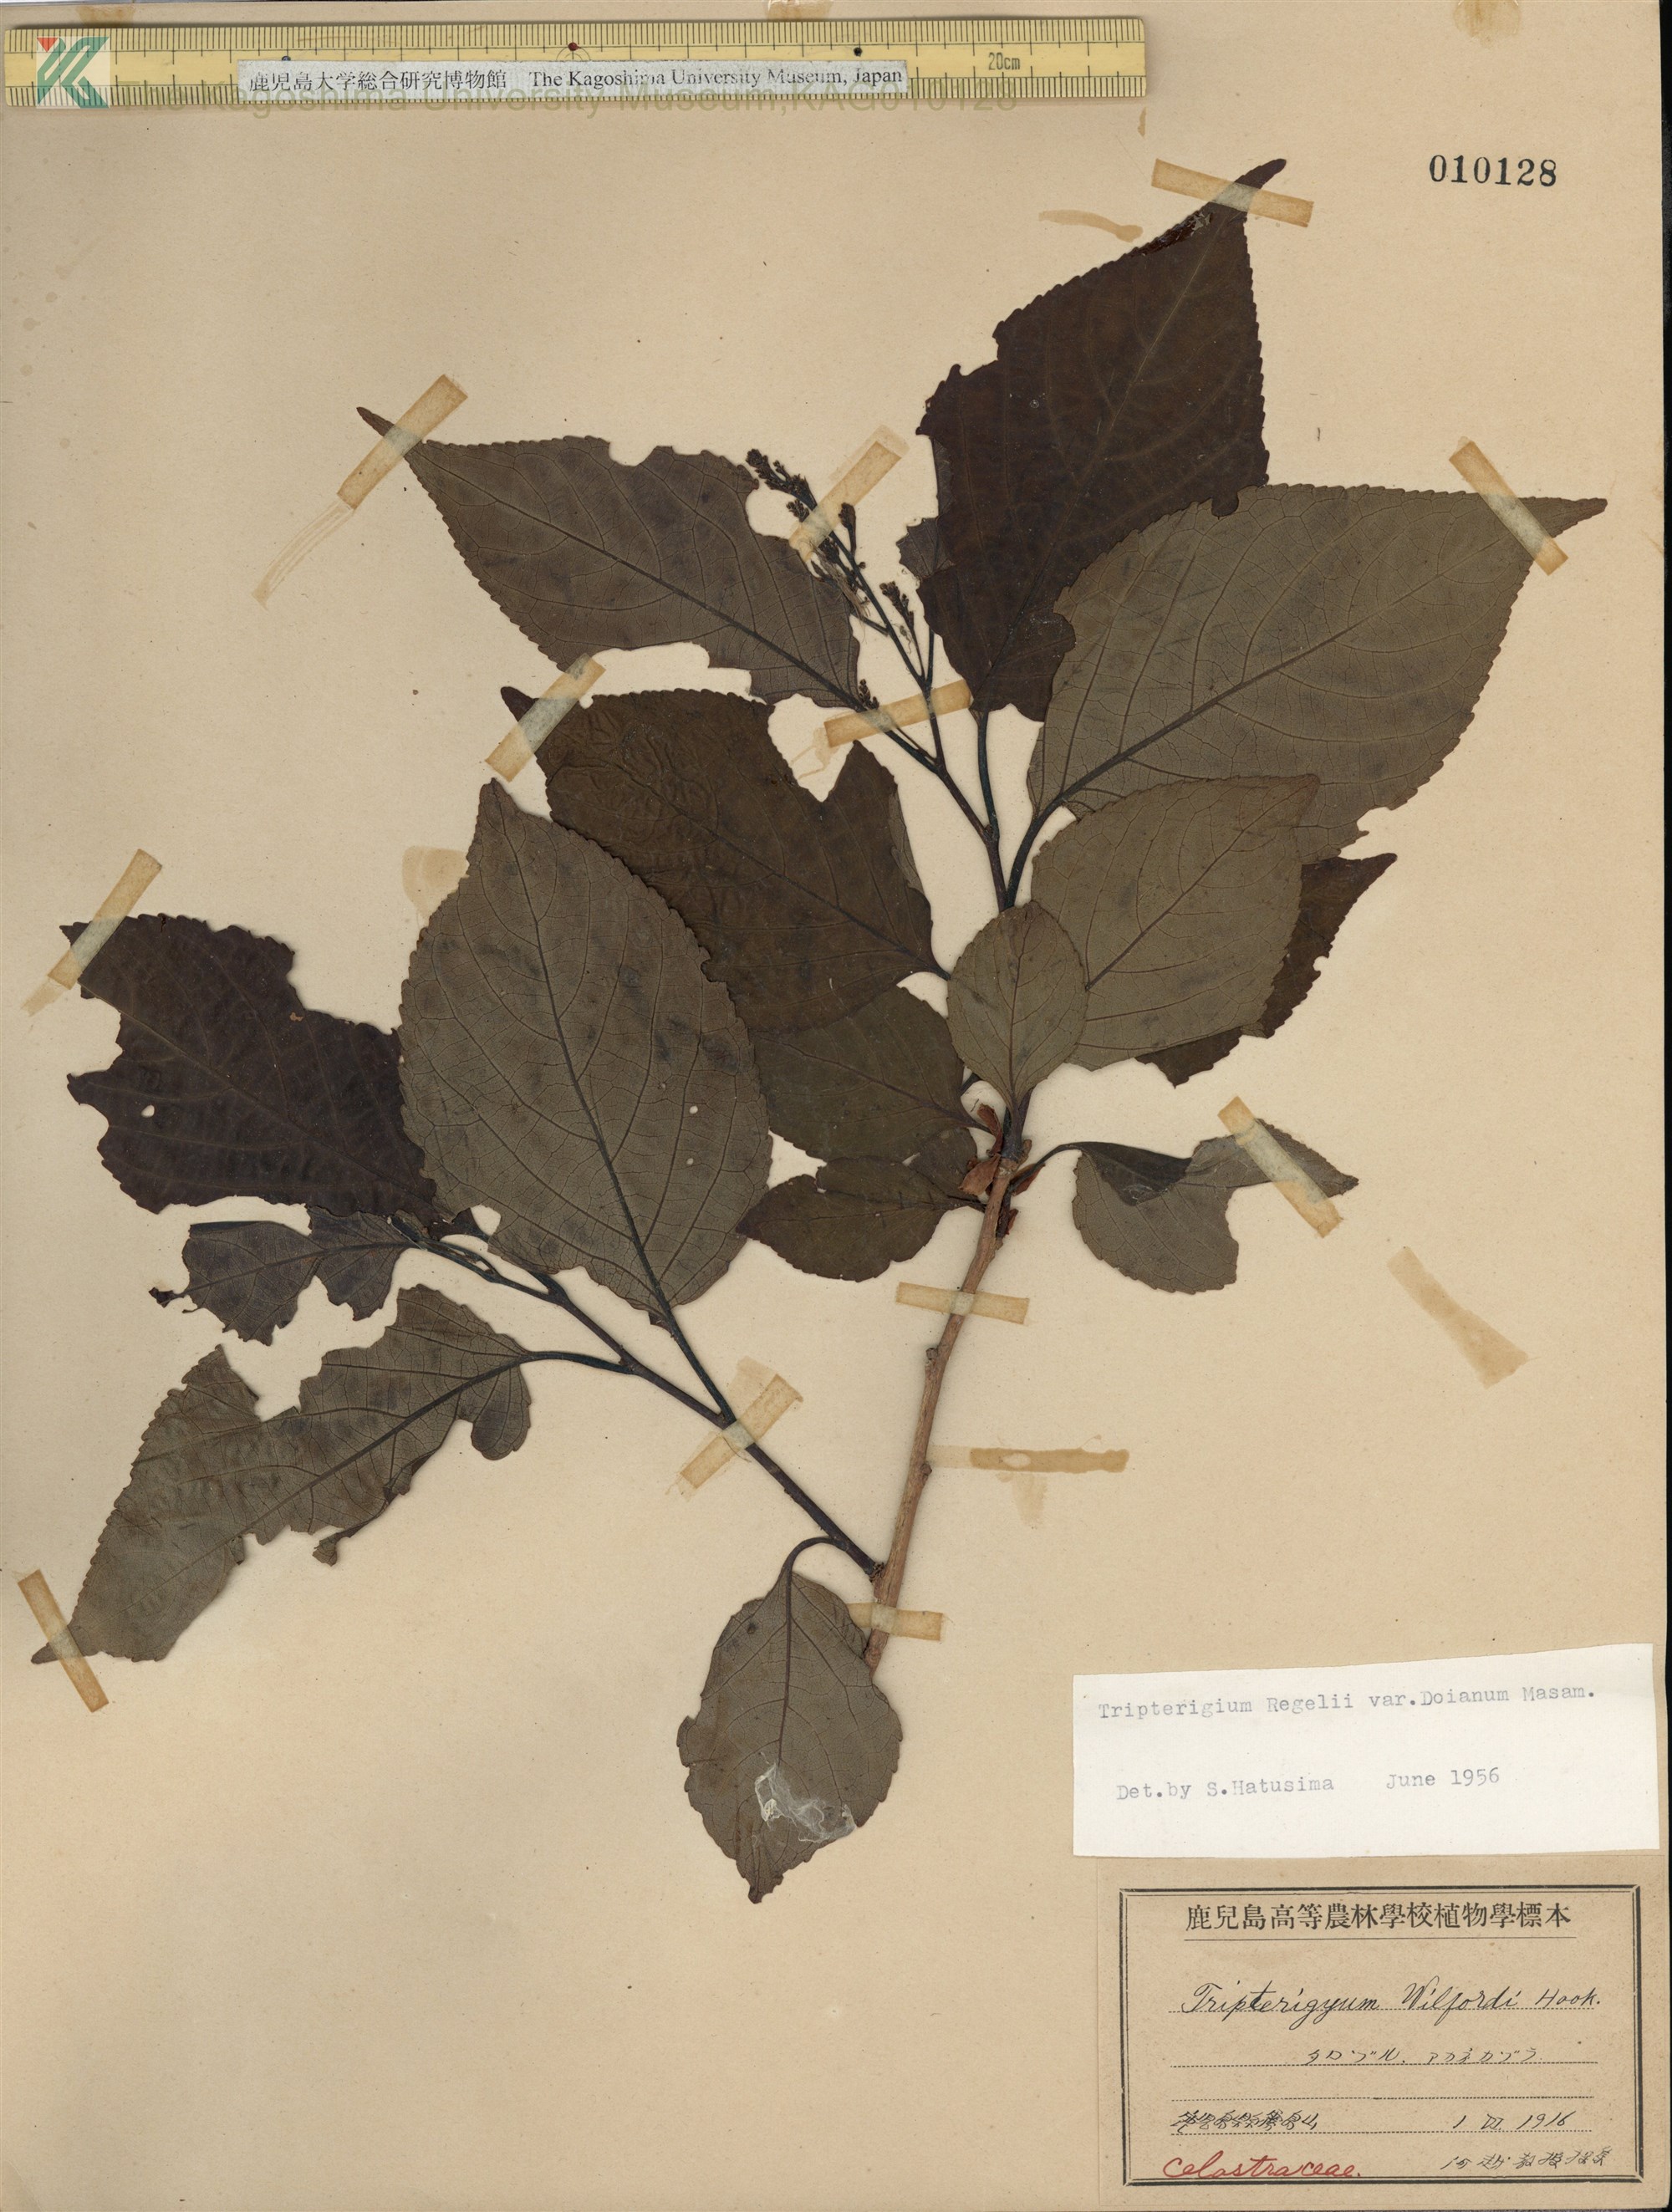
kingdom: Plantae
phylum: Tracheophyta
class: Magnoliopsida
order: Celastrales
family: Celastraceae
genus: Tripterygium
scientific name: Tripterygium doianum
